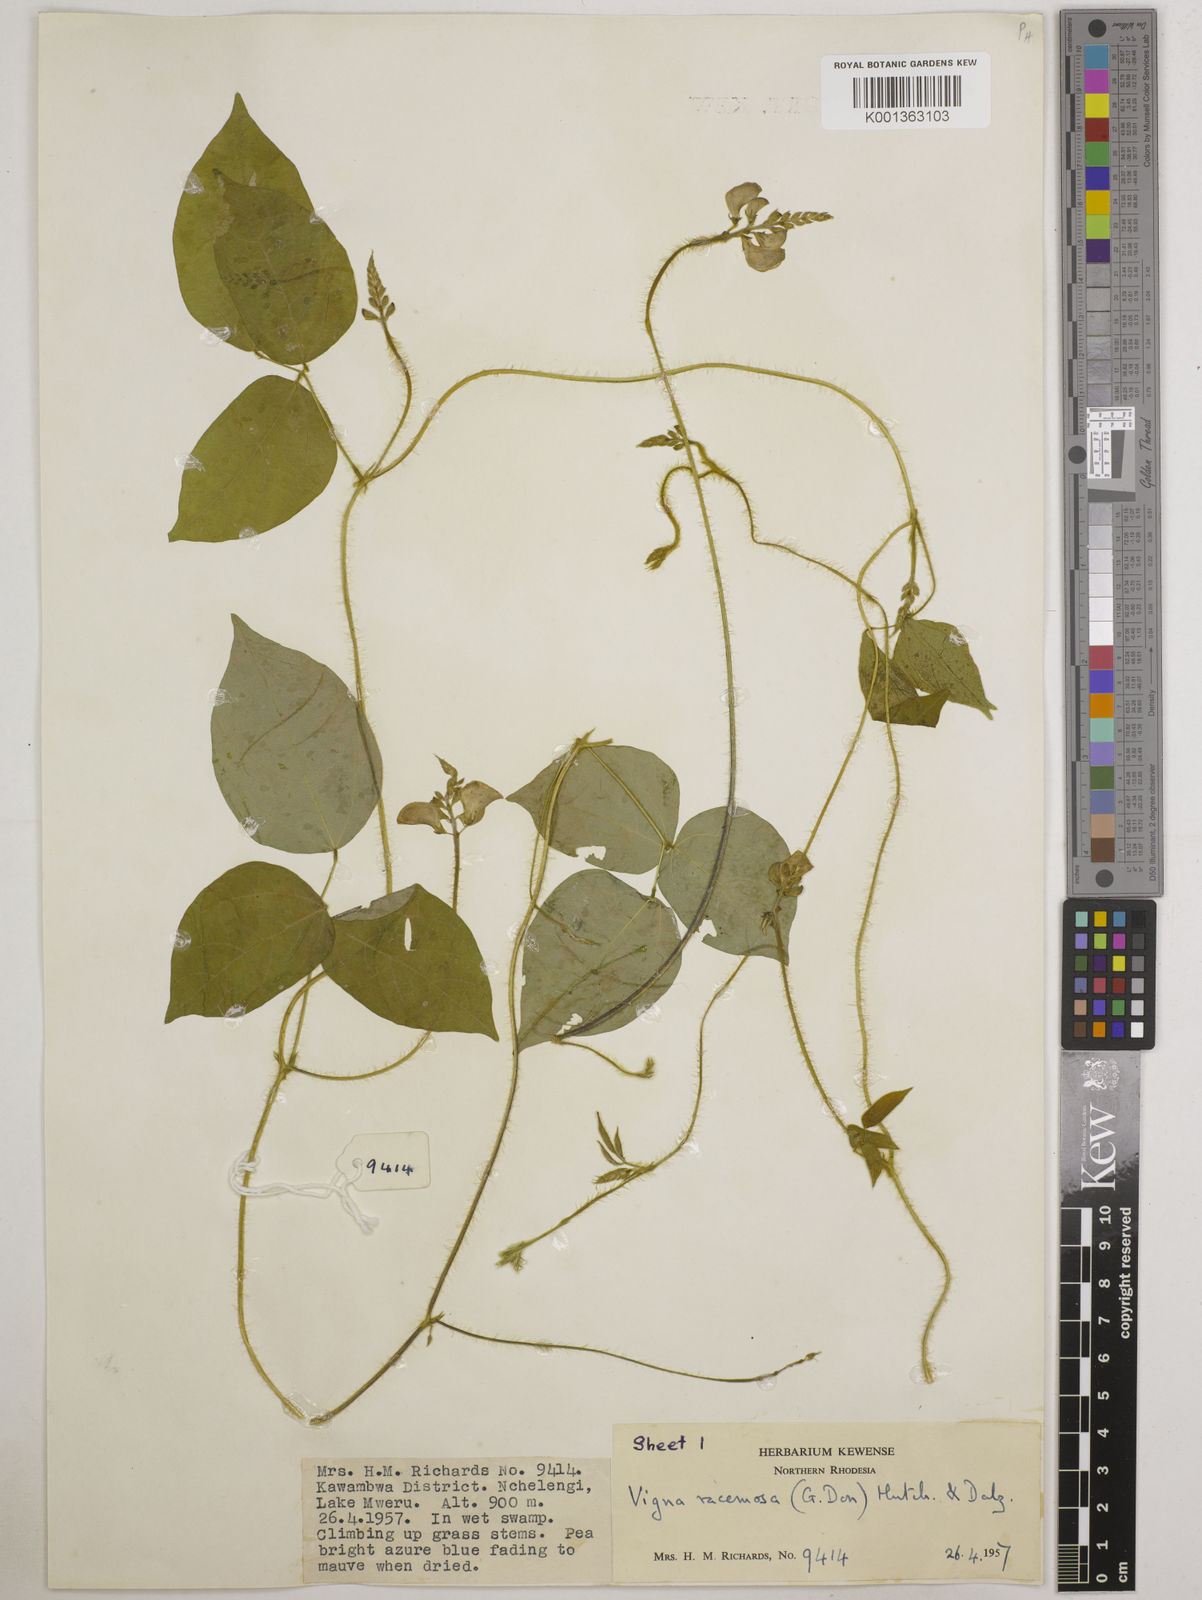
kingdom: Plantae
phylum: Tracheophyta
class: Magnoliopsida
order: Fabales
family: Fabaceae
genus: Vigna
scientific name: Vigna racemosa
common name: Beans not eaten
